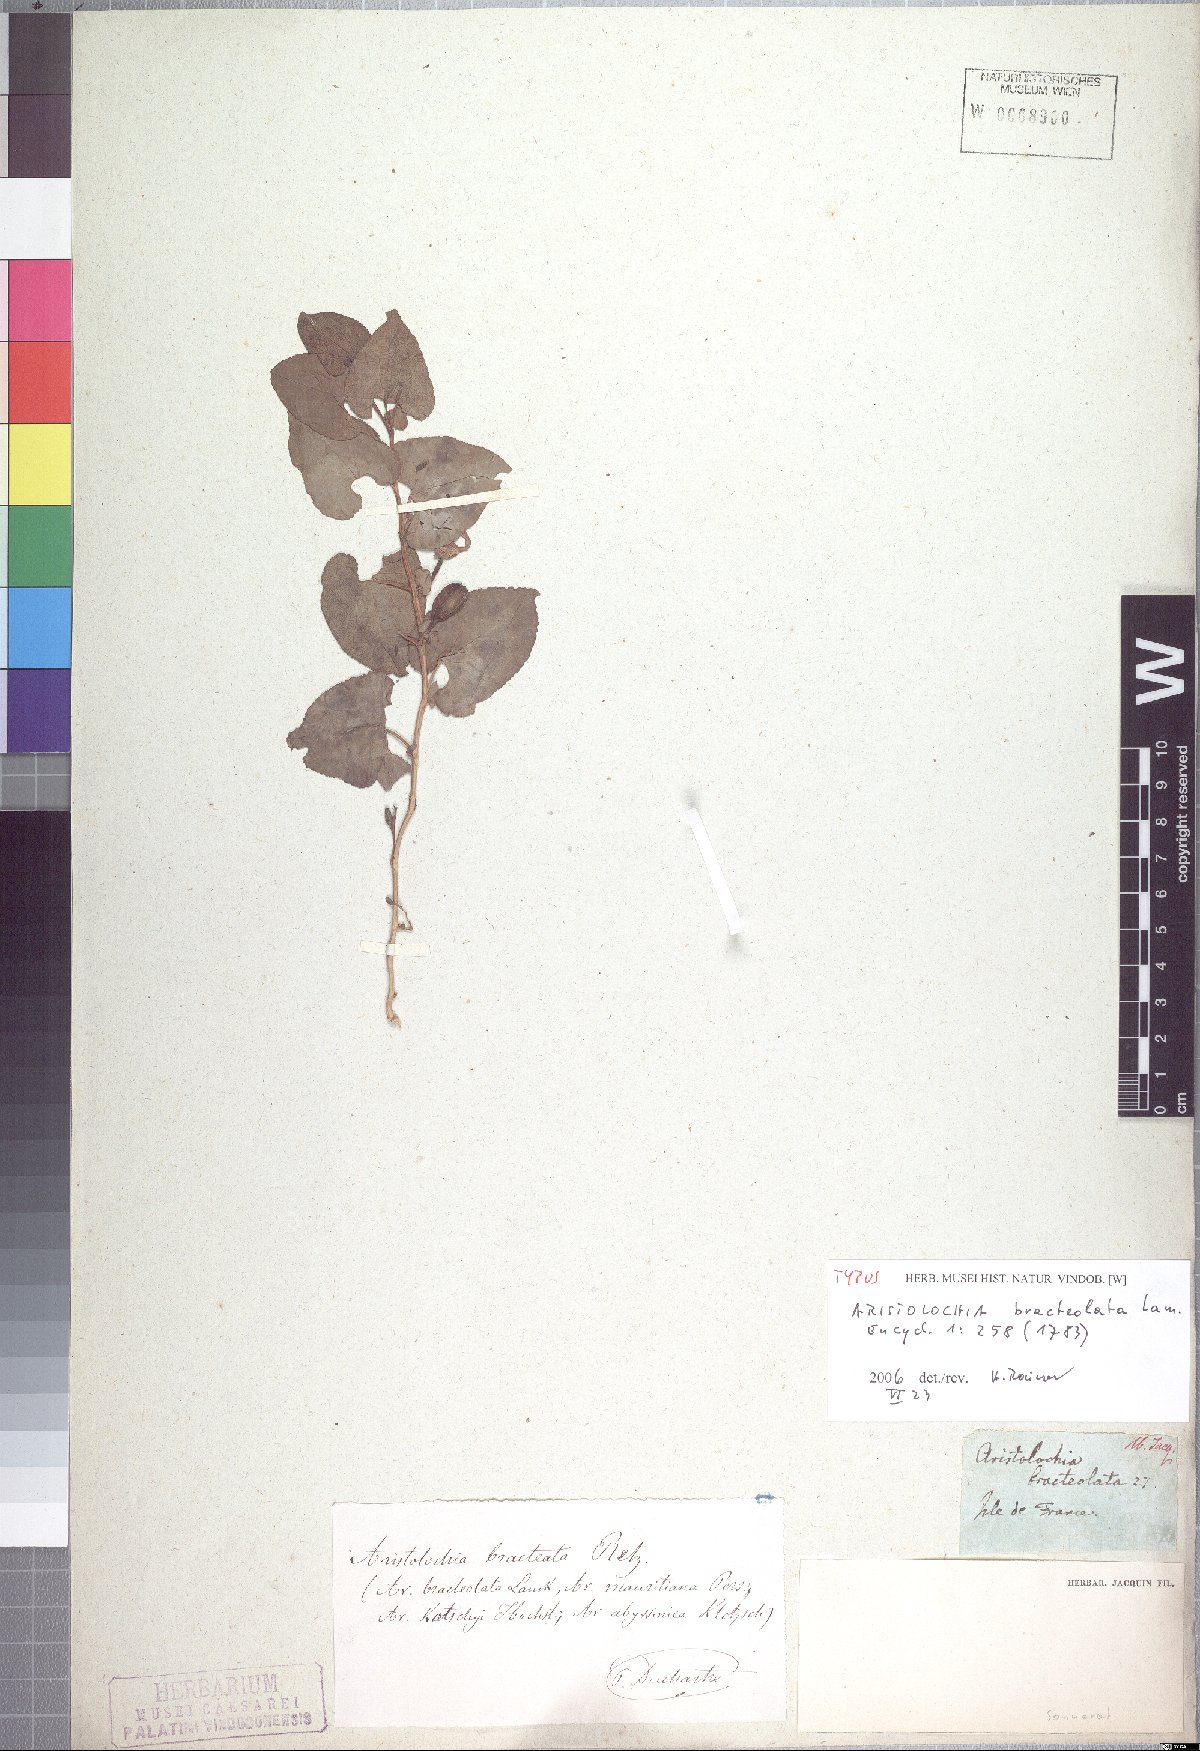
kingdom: Plantae
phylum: Tracheophyta
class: Magnoliopsida
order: Piperales
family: Aristolochiaceae
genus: Aristolochia
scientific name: Aristolochia bracteolata
